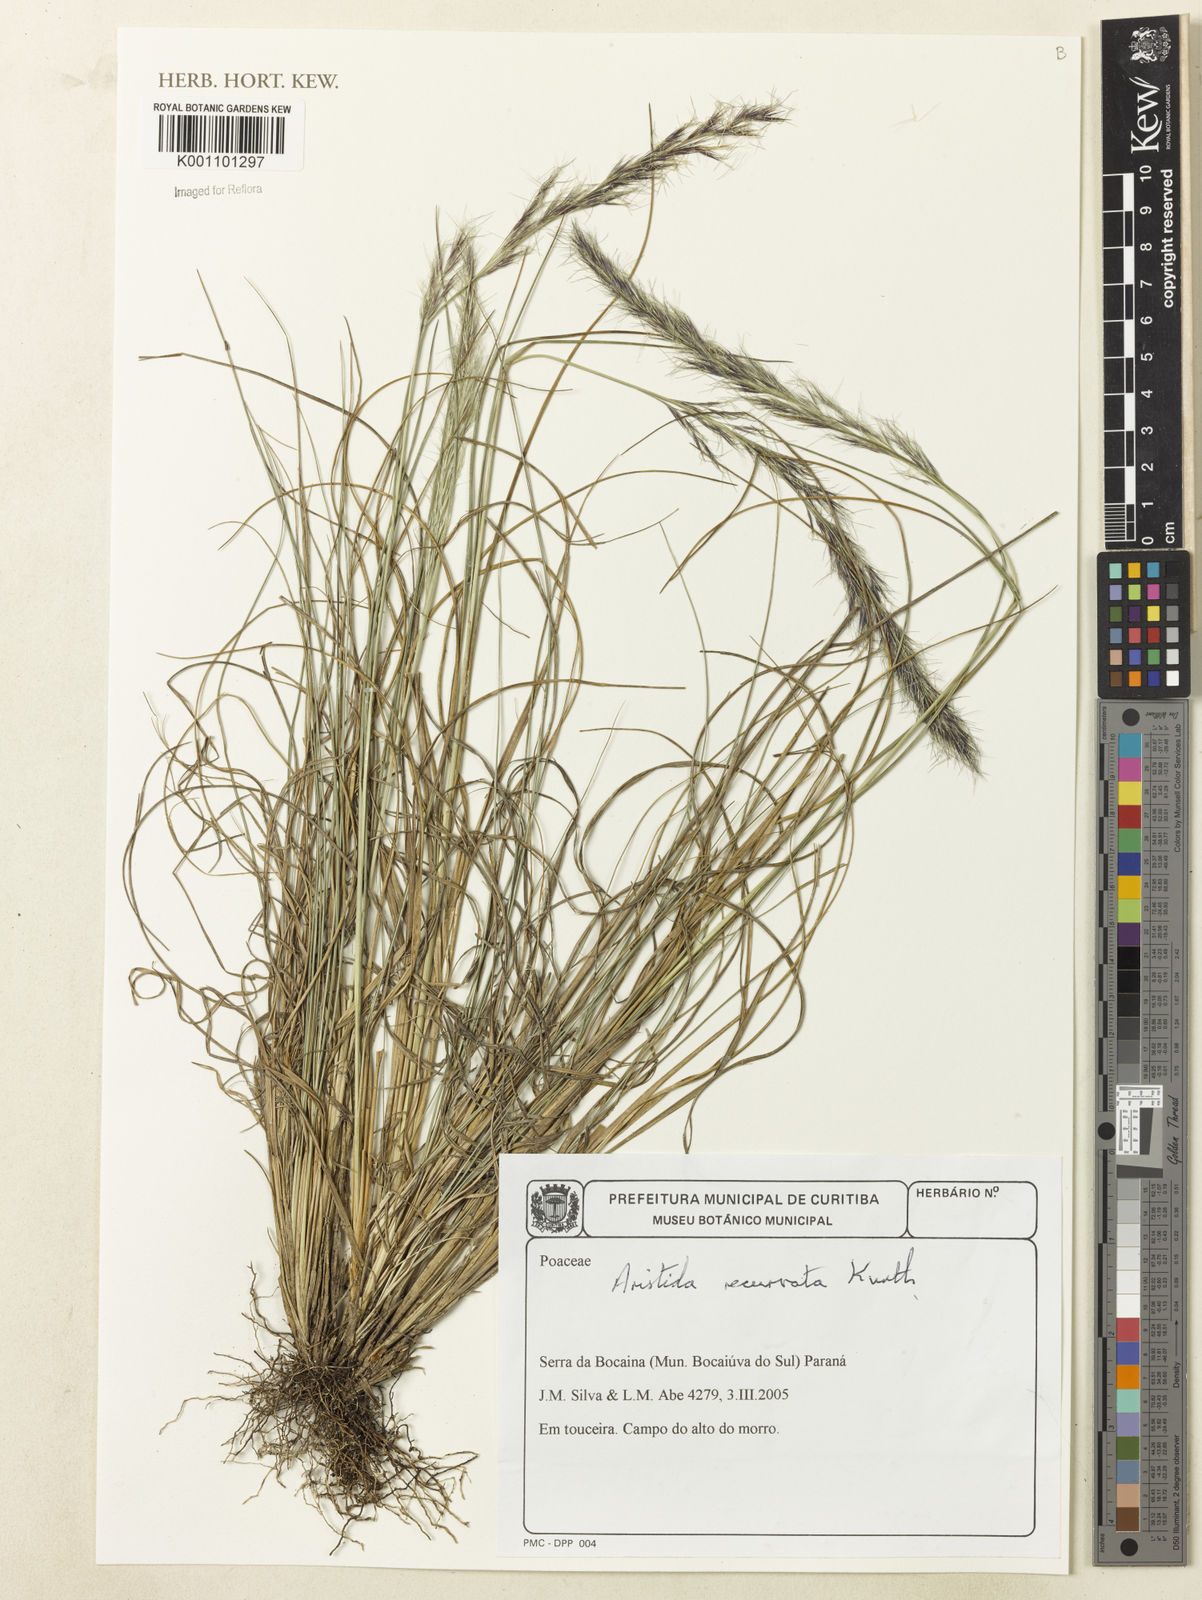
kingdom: Plantae
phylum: Tracheophyta
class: Liliopsida
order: Poales
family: Poaceae
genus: Aristida
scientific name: Aristida recurvata
